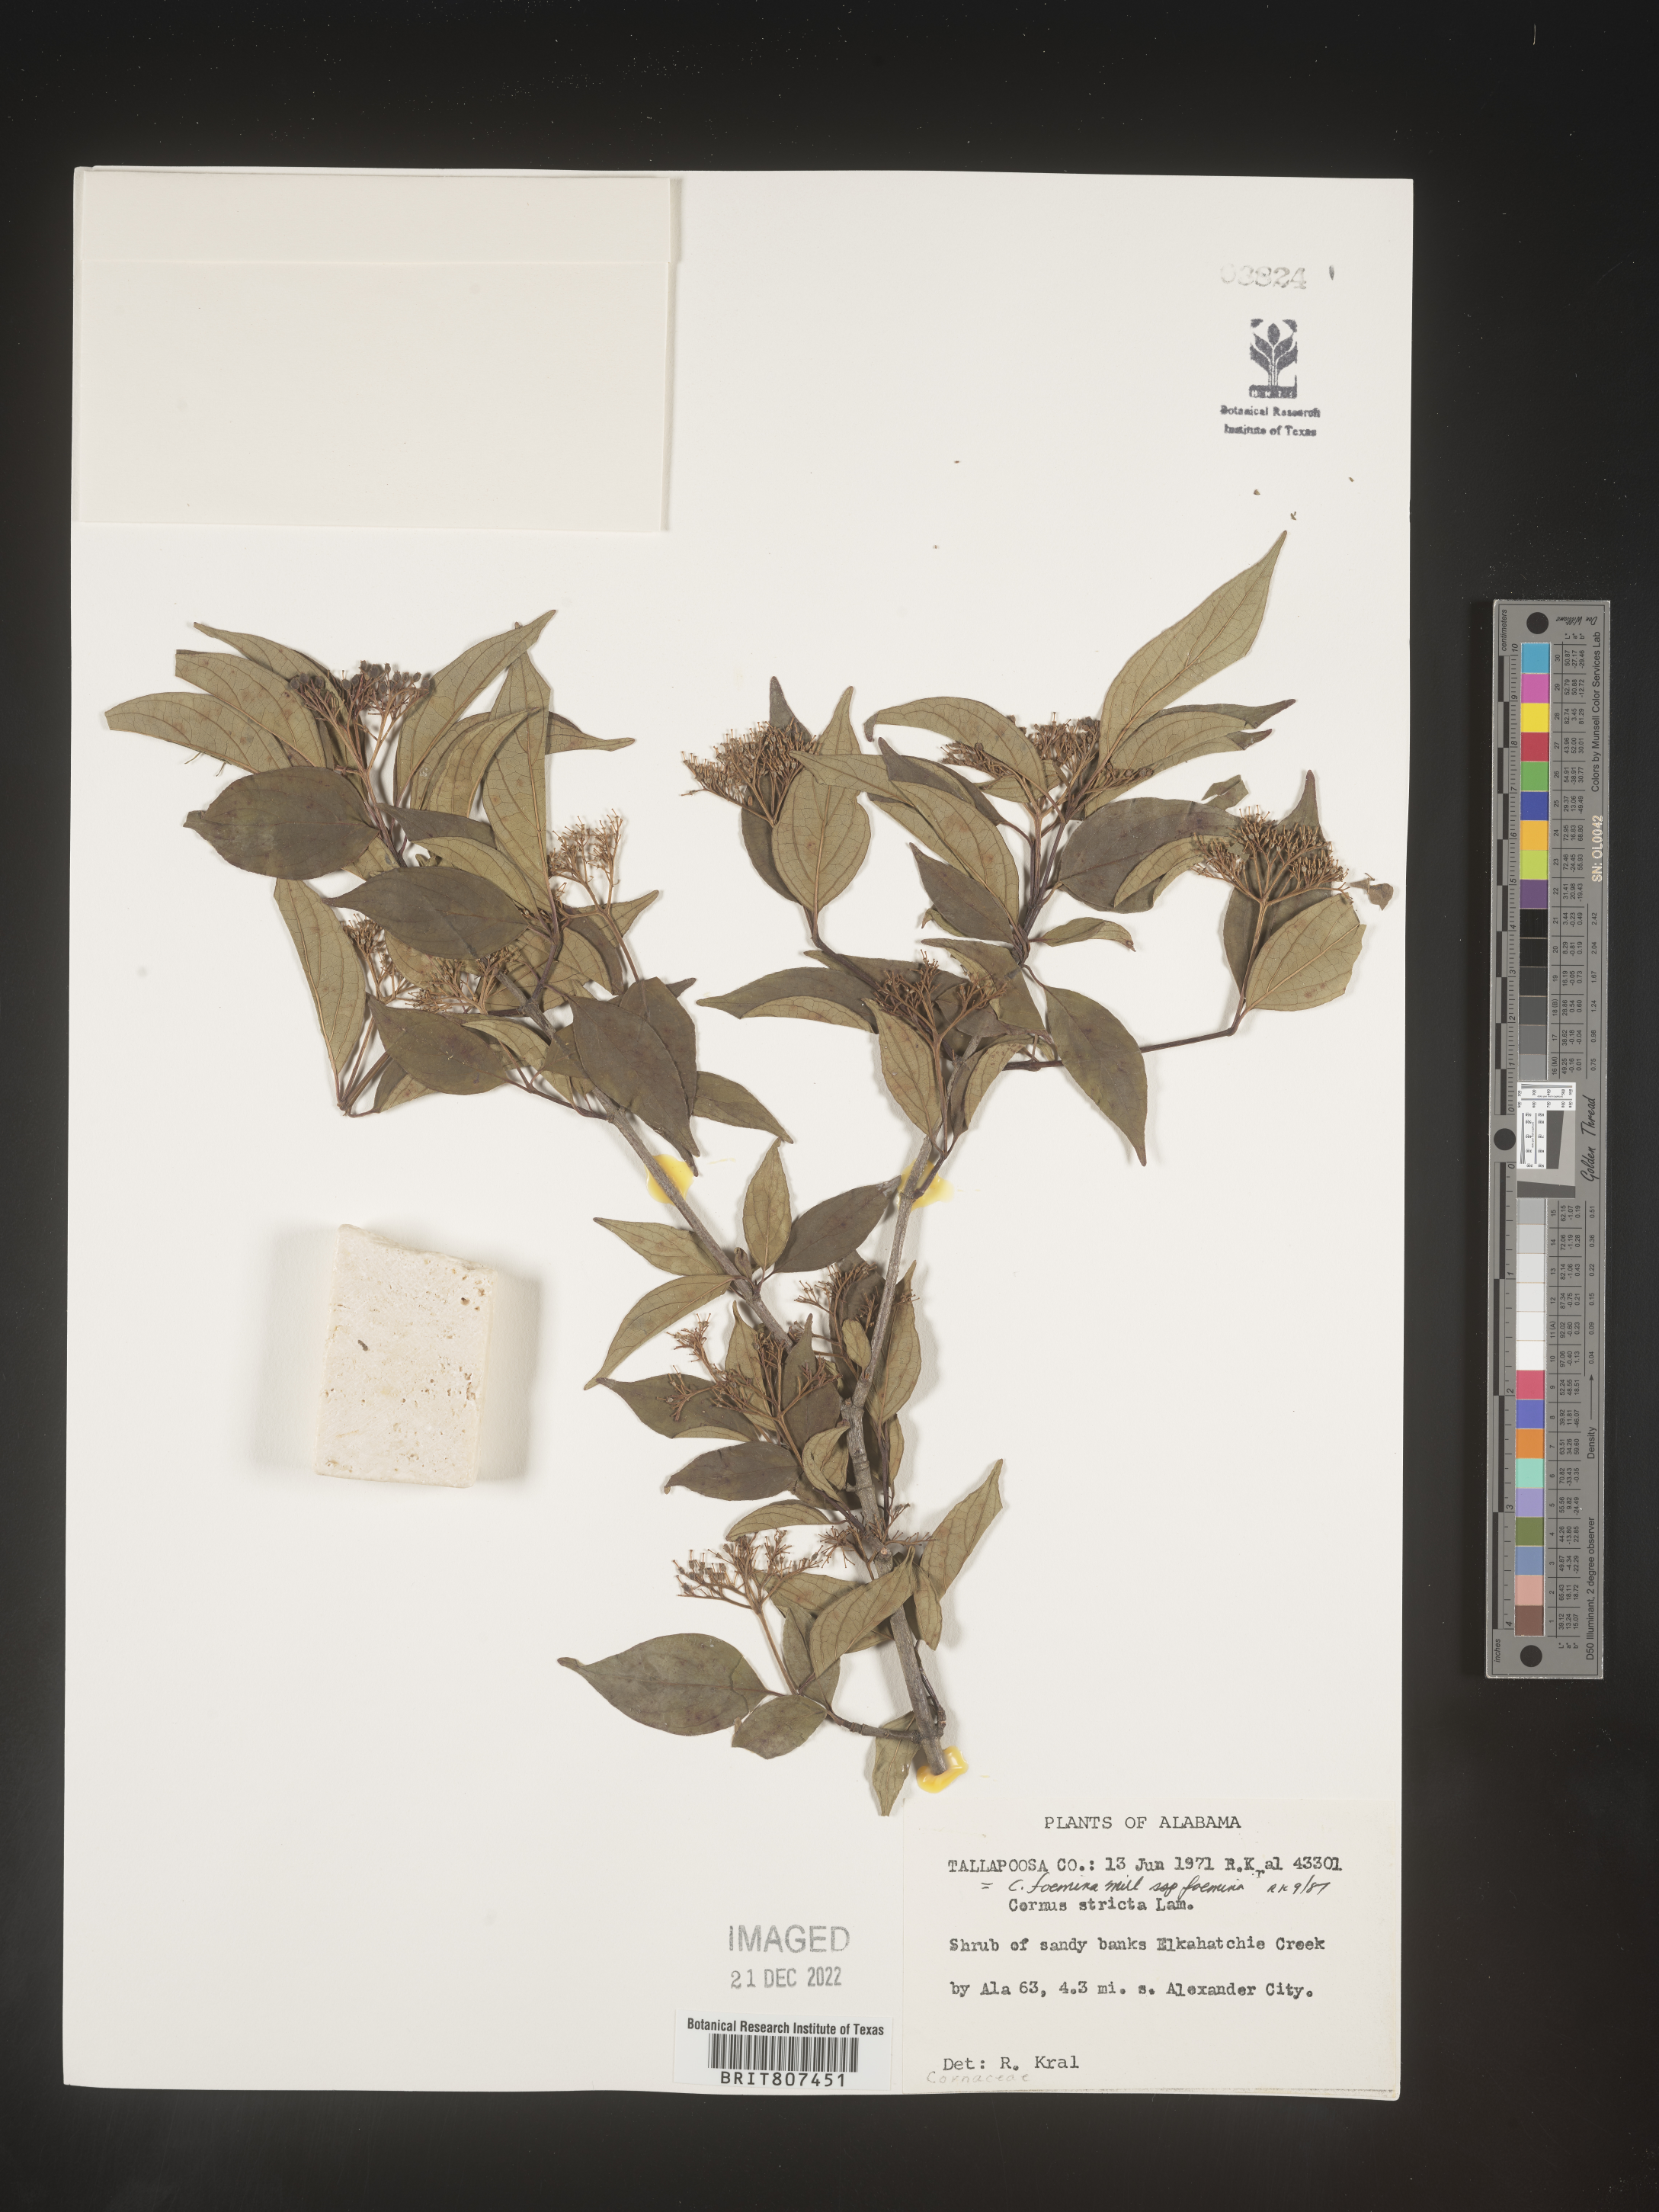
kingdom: Plantae
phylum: Tracheophyta
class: Magnoliopsida
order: Cornales
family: Cornaceae
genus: Cornus
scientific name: Cornus foemina
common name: Swamp dogwood
